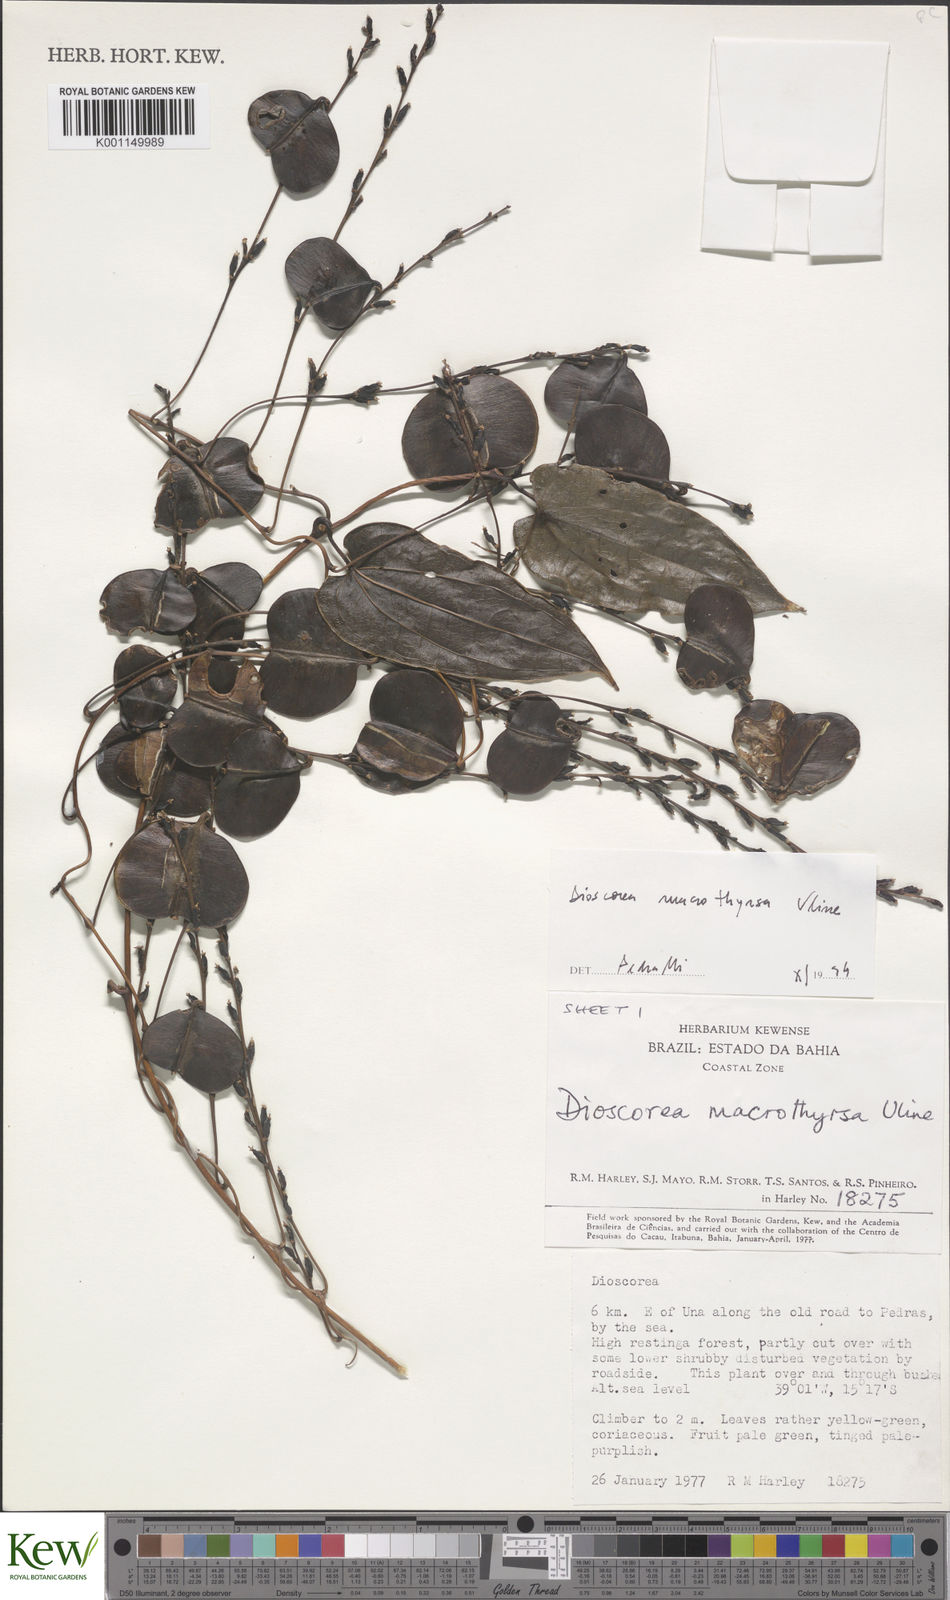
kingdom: Plantae
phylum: Tracheophyta
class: Liliopsida
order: Dioscoreales
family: Dioscoreaceae
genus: Dioscorea
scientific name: Dioscorea macrothyrsa
